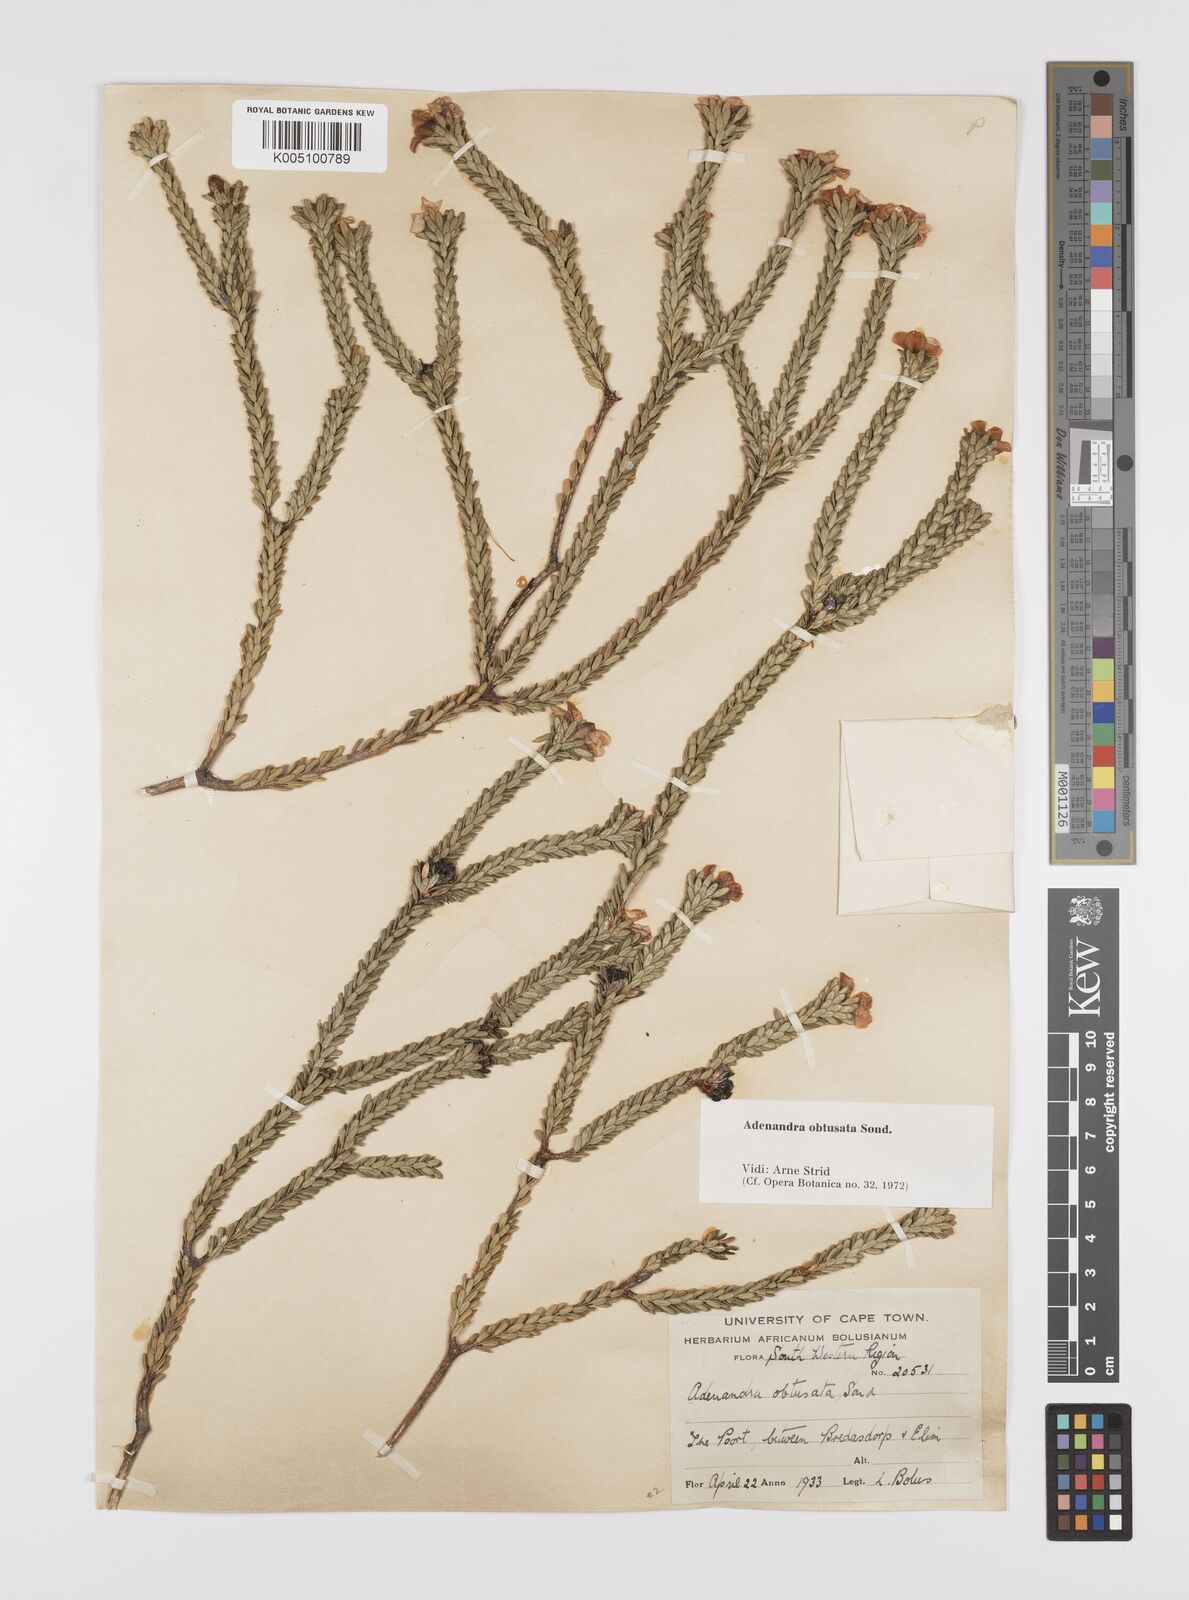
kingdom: Plantae
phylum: Tracheophyta
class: Magnoliopsida
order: Sapindales
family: Rutaceae
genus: Adenandra
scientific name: Adenandra obtusata
